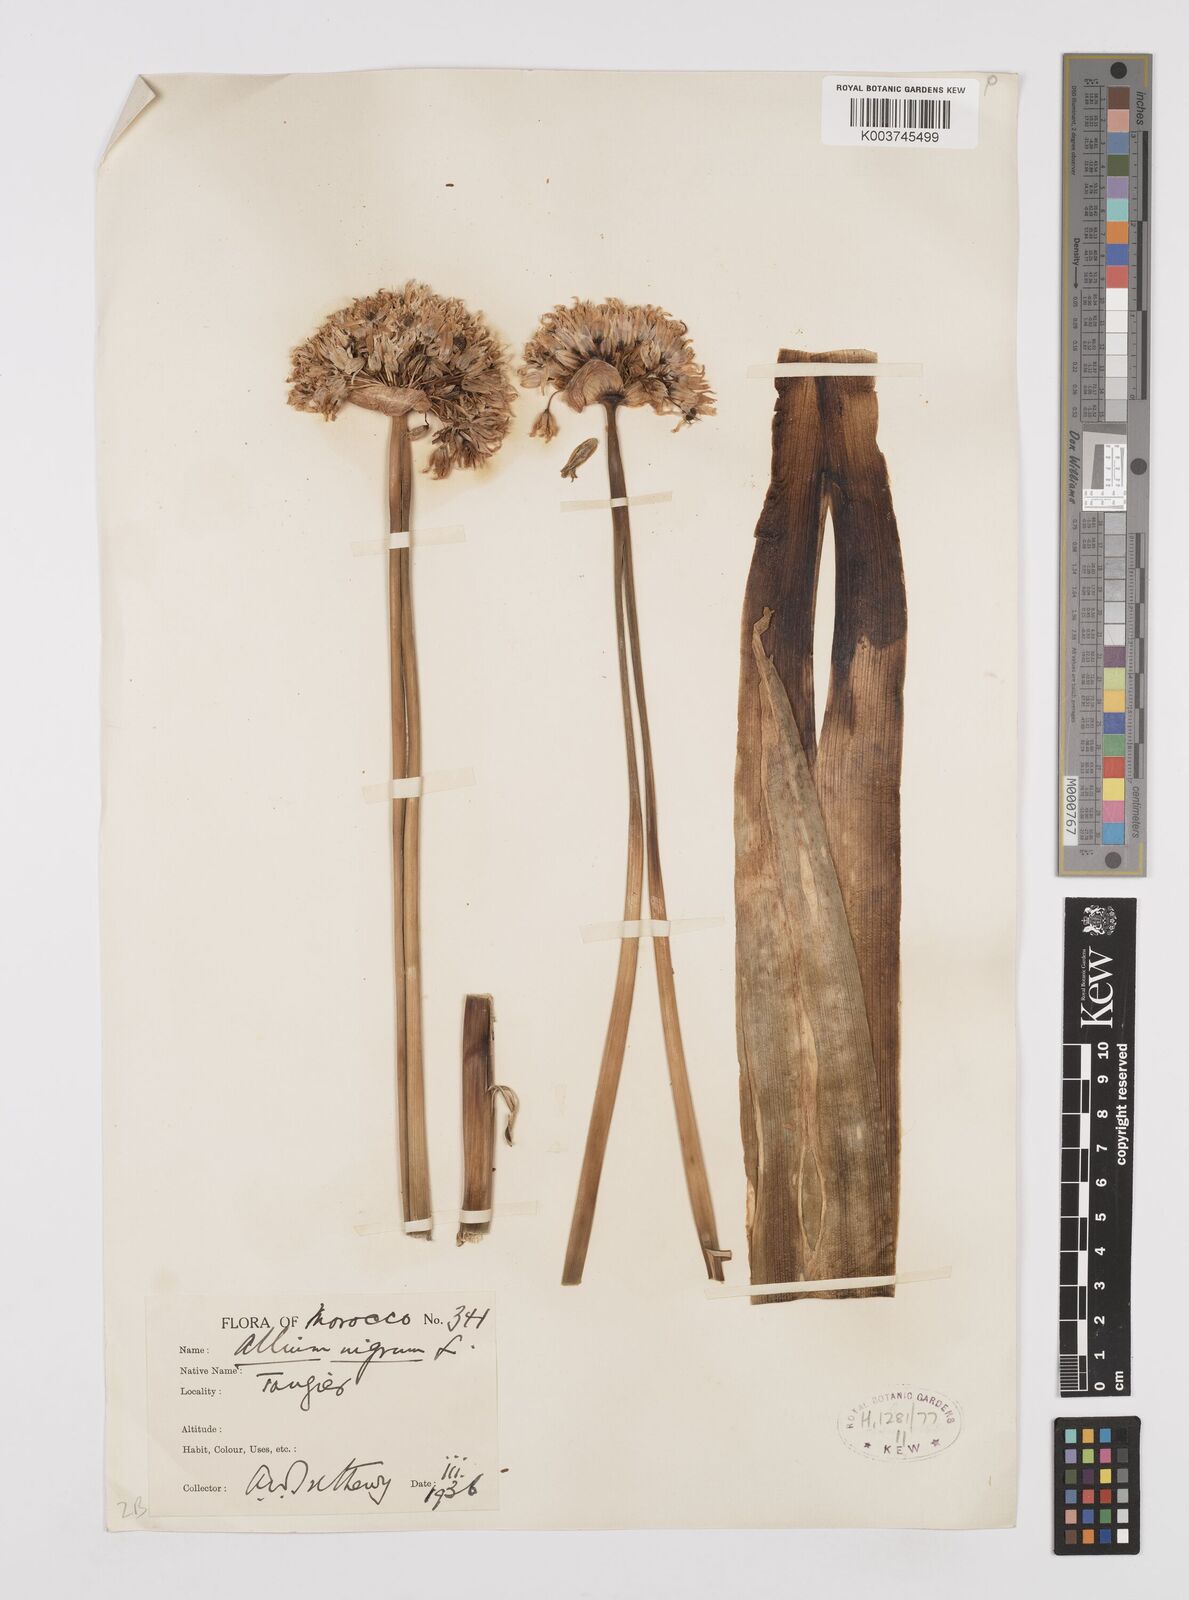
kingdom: Plantae
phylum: Tracheophyta
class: Liliopsida
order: Asparagales
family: Amaryllidaceae
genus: Allium
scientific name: Allium nigrum
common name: Black garlic
